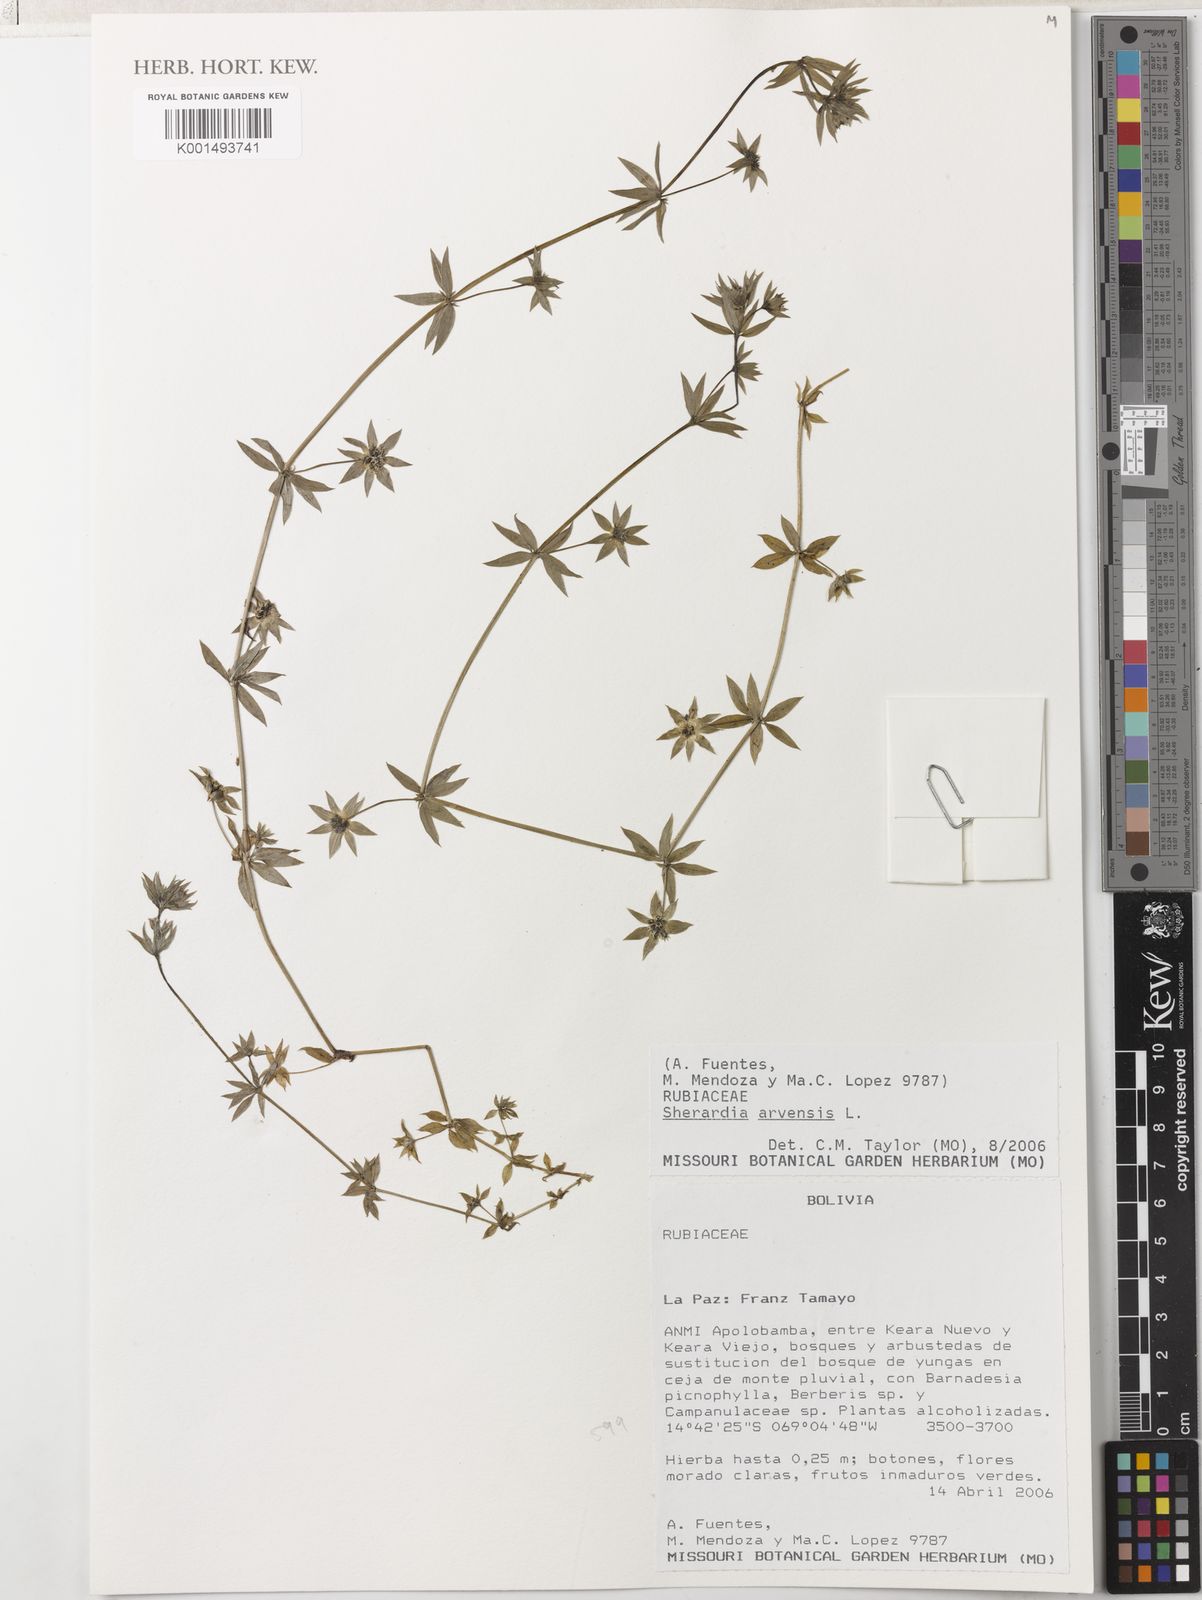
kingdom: Plantae
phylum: Tracheophyta
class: Magnoliopsida
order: Gentianales
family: Rubiaceae
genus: Sherardia
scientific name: Sherardia arvensis
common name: Field madder
